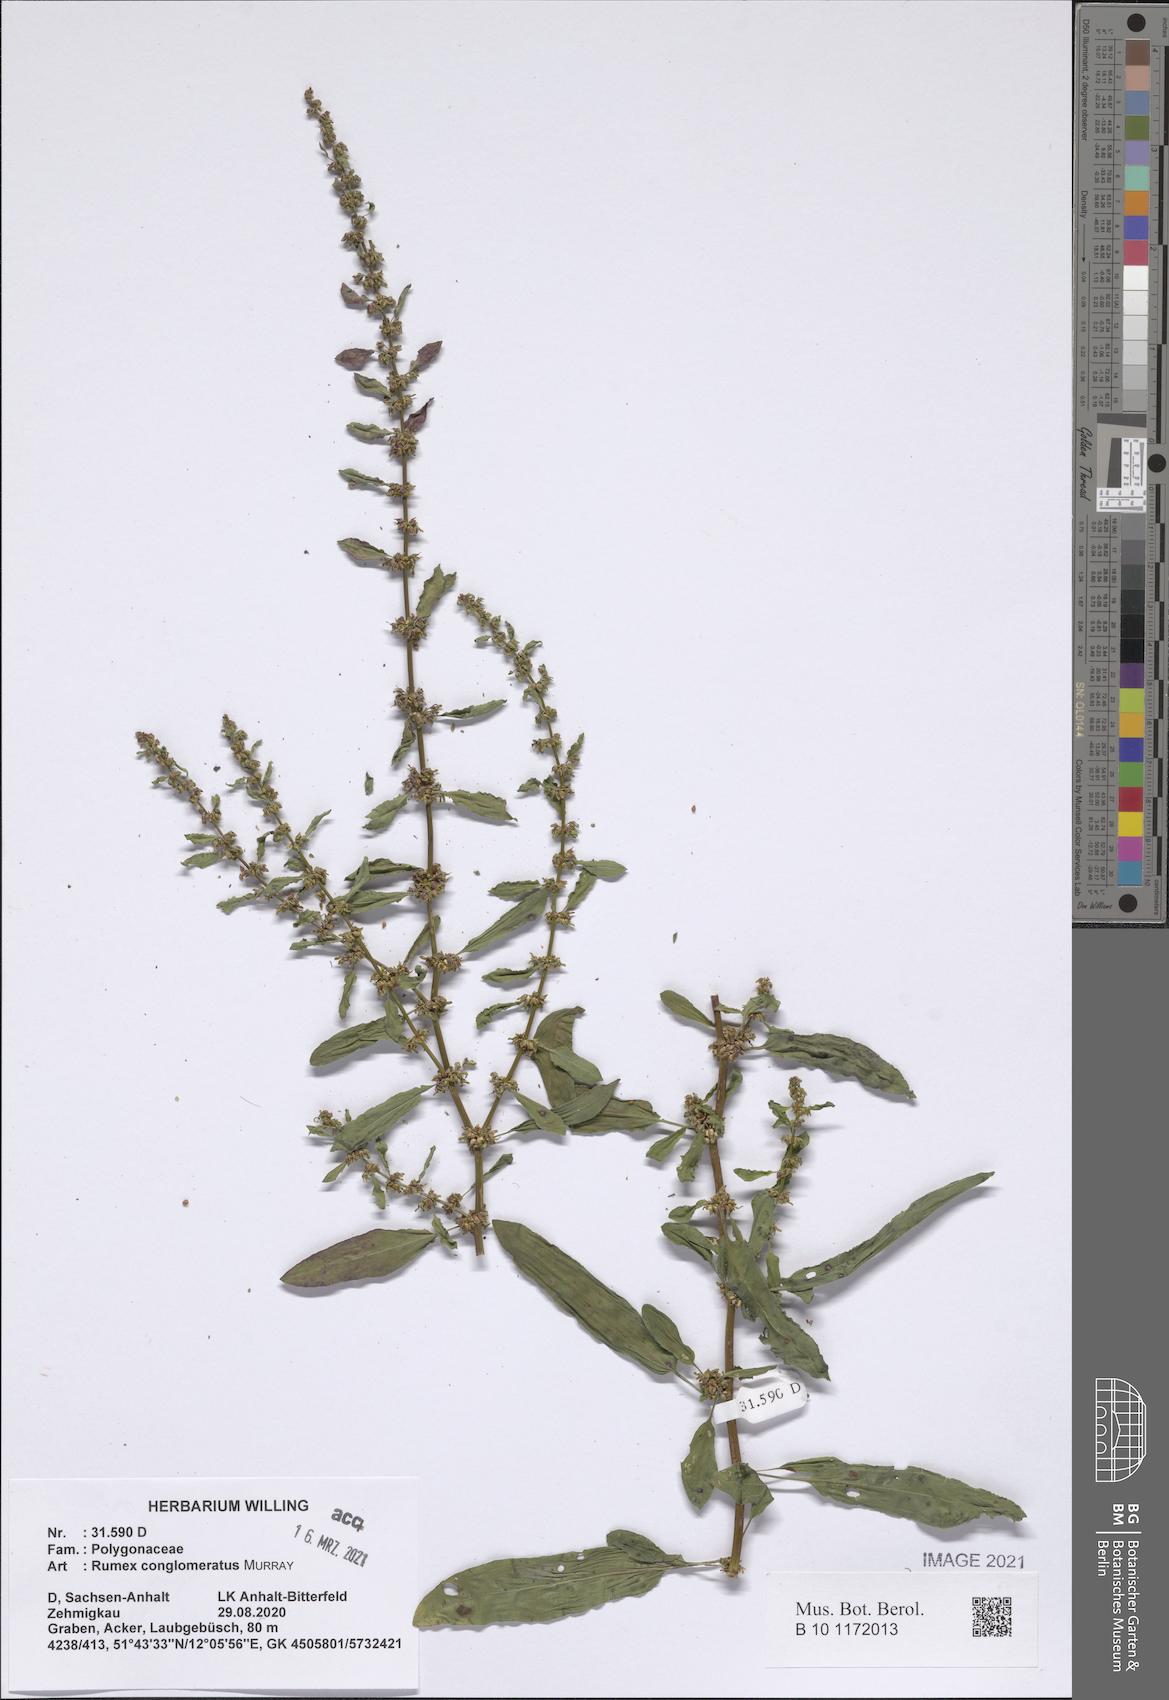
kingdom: Plantae
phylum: Tracheophyta
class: Magnoliopsida
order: Caryophyllales
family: Polygonaceae
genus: Rumex
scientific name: Rumex conglomeratus
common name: Clustered dock
